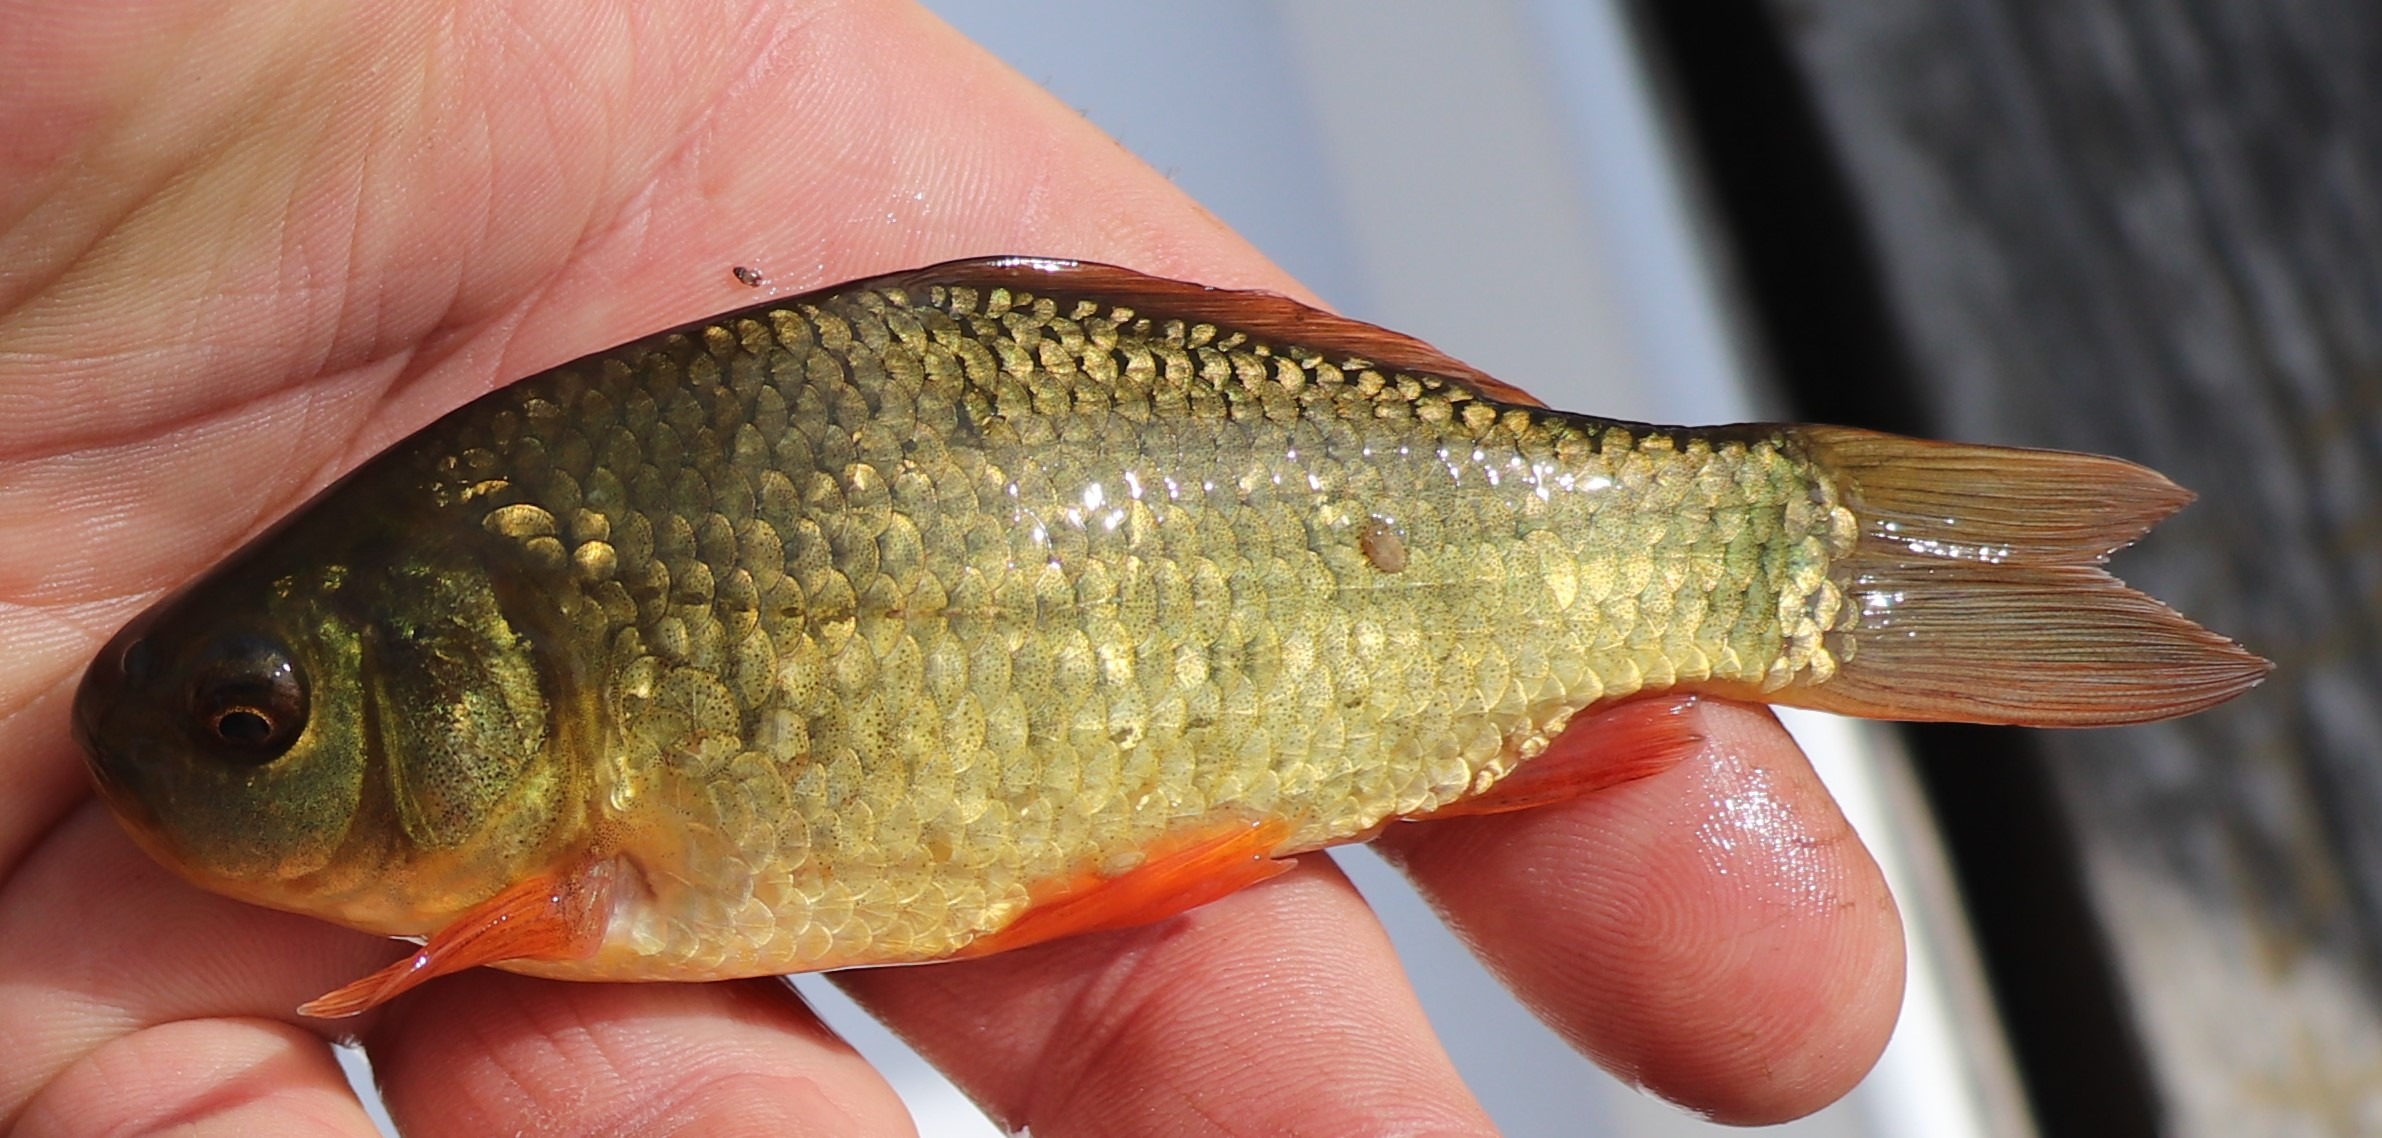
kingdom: Animalia
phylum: Chordata
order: Cypriniformes
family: Cyprinidae
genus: Carassius
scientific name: Carassius carassius
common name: Karusse
